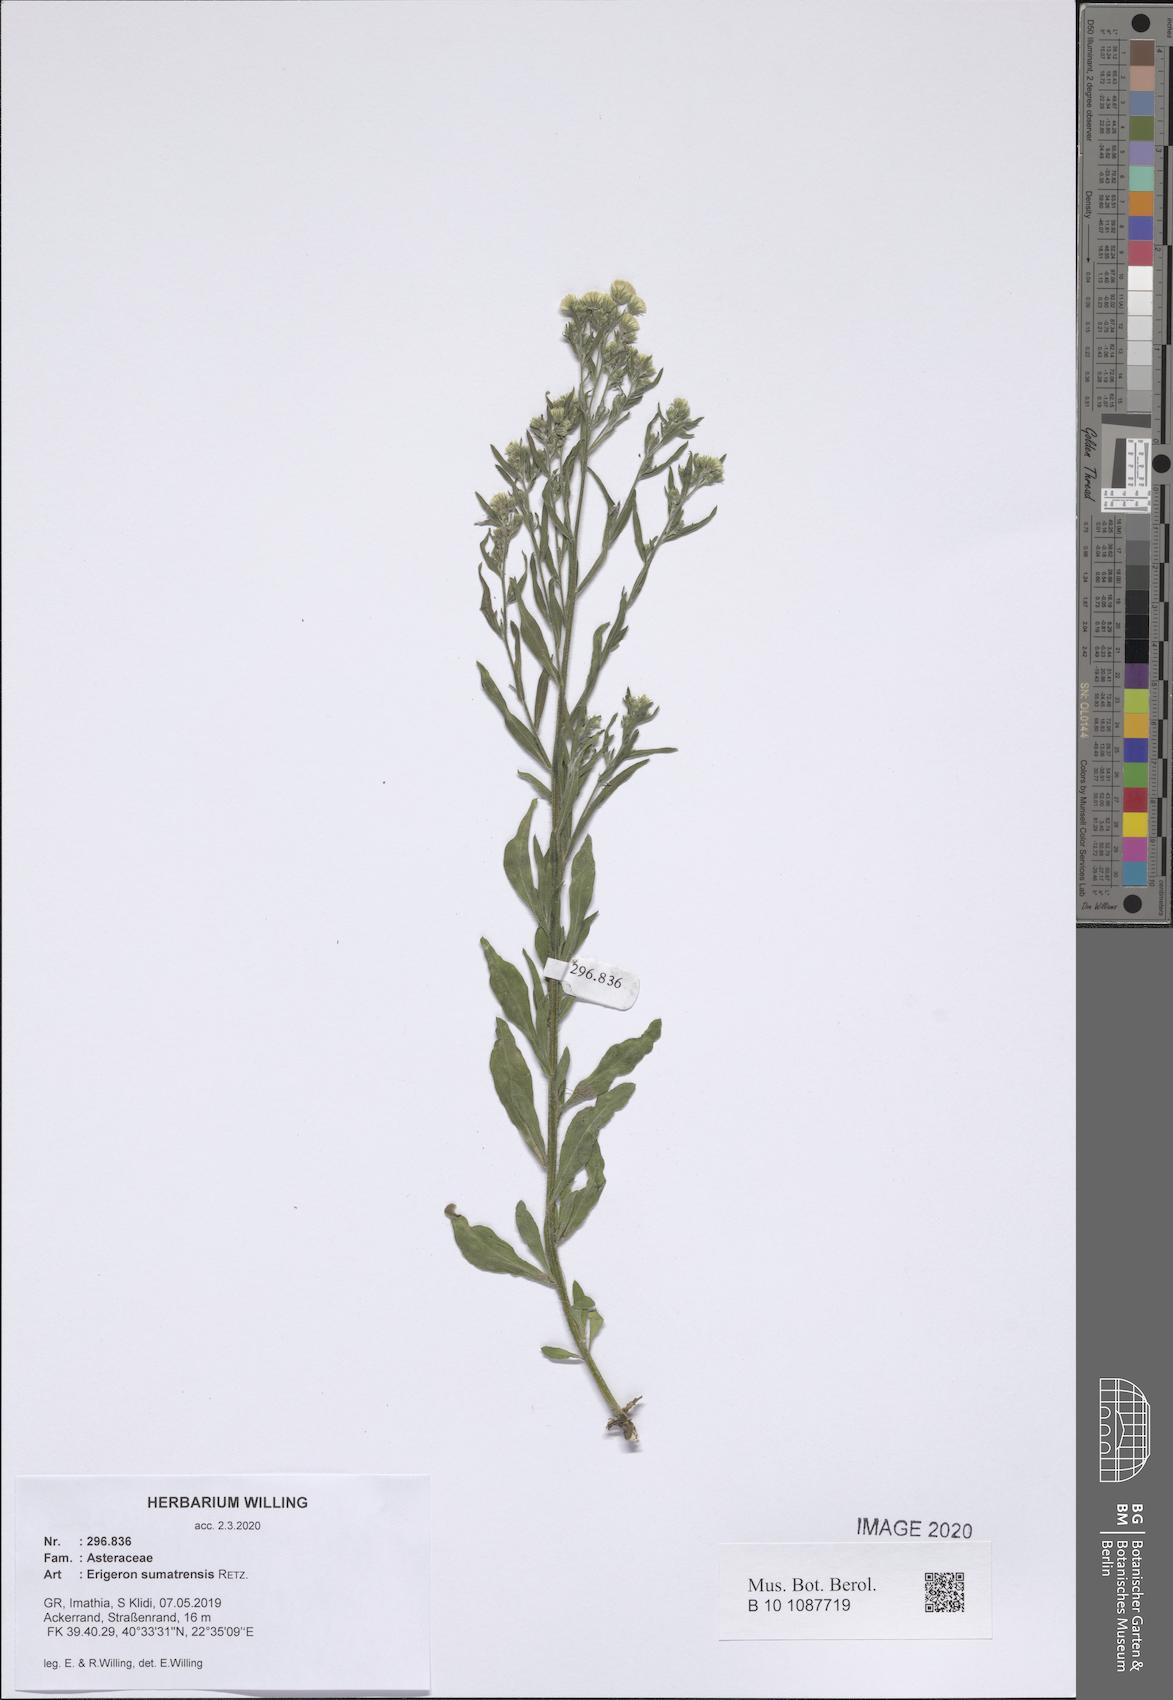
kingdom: Plantae
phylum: Tracheophyta
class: Magnoliopsida
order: Asterales
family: Asteraceae
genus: Erigeron
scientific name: Erigeron sumatrensis
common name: Daisy
